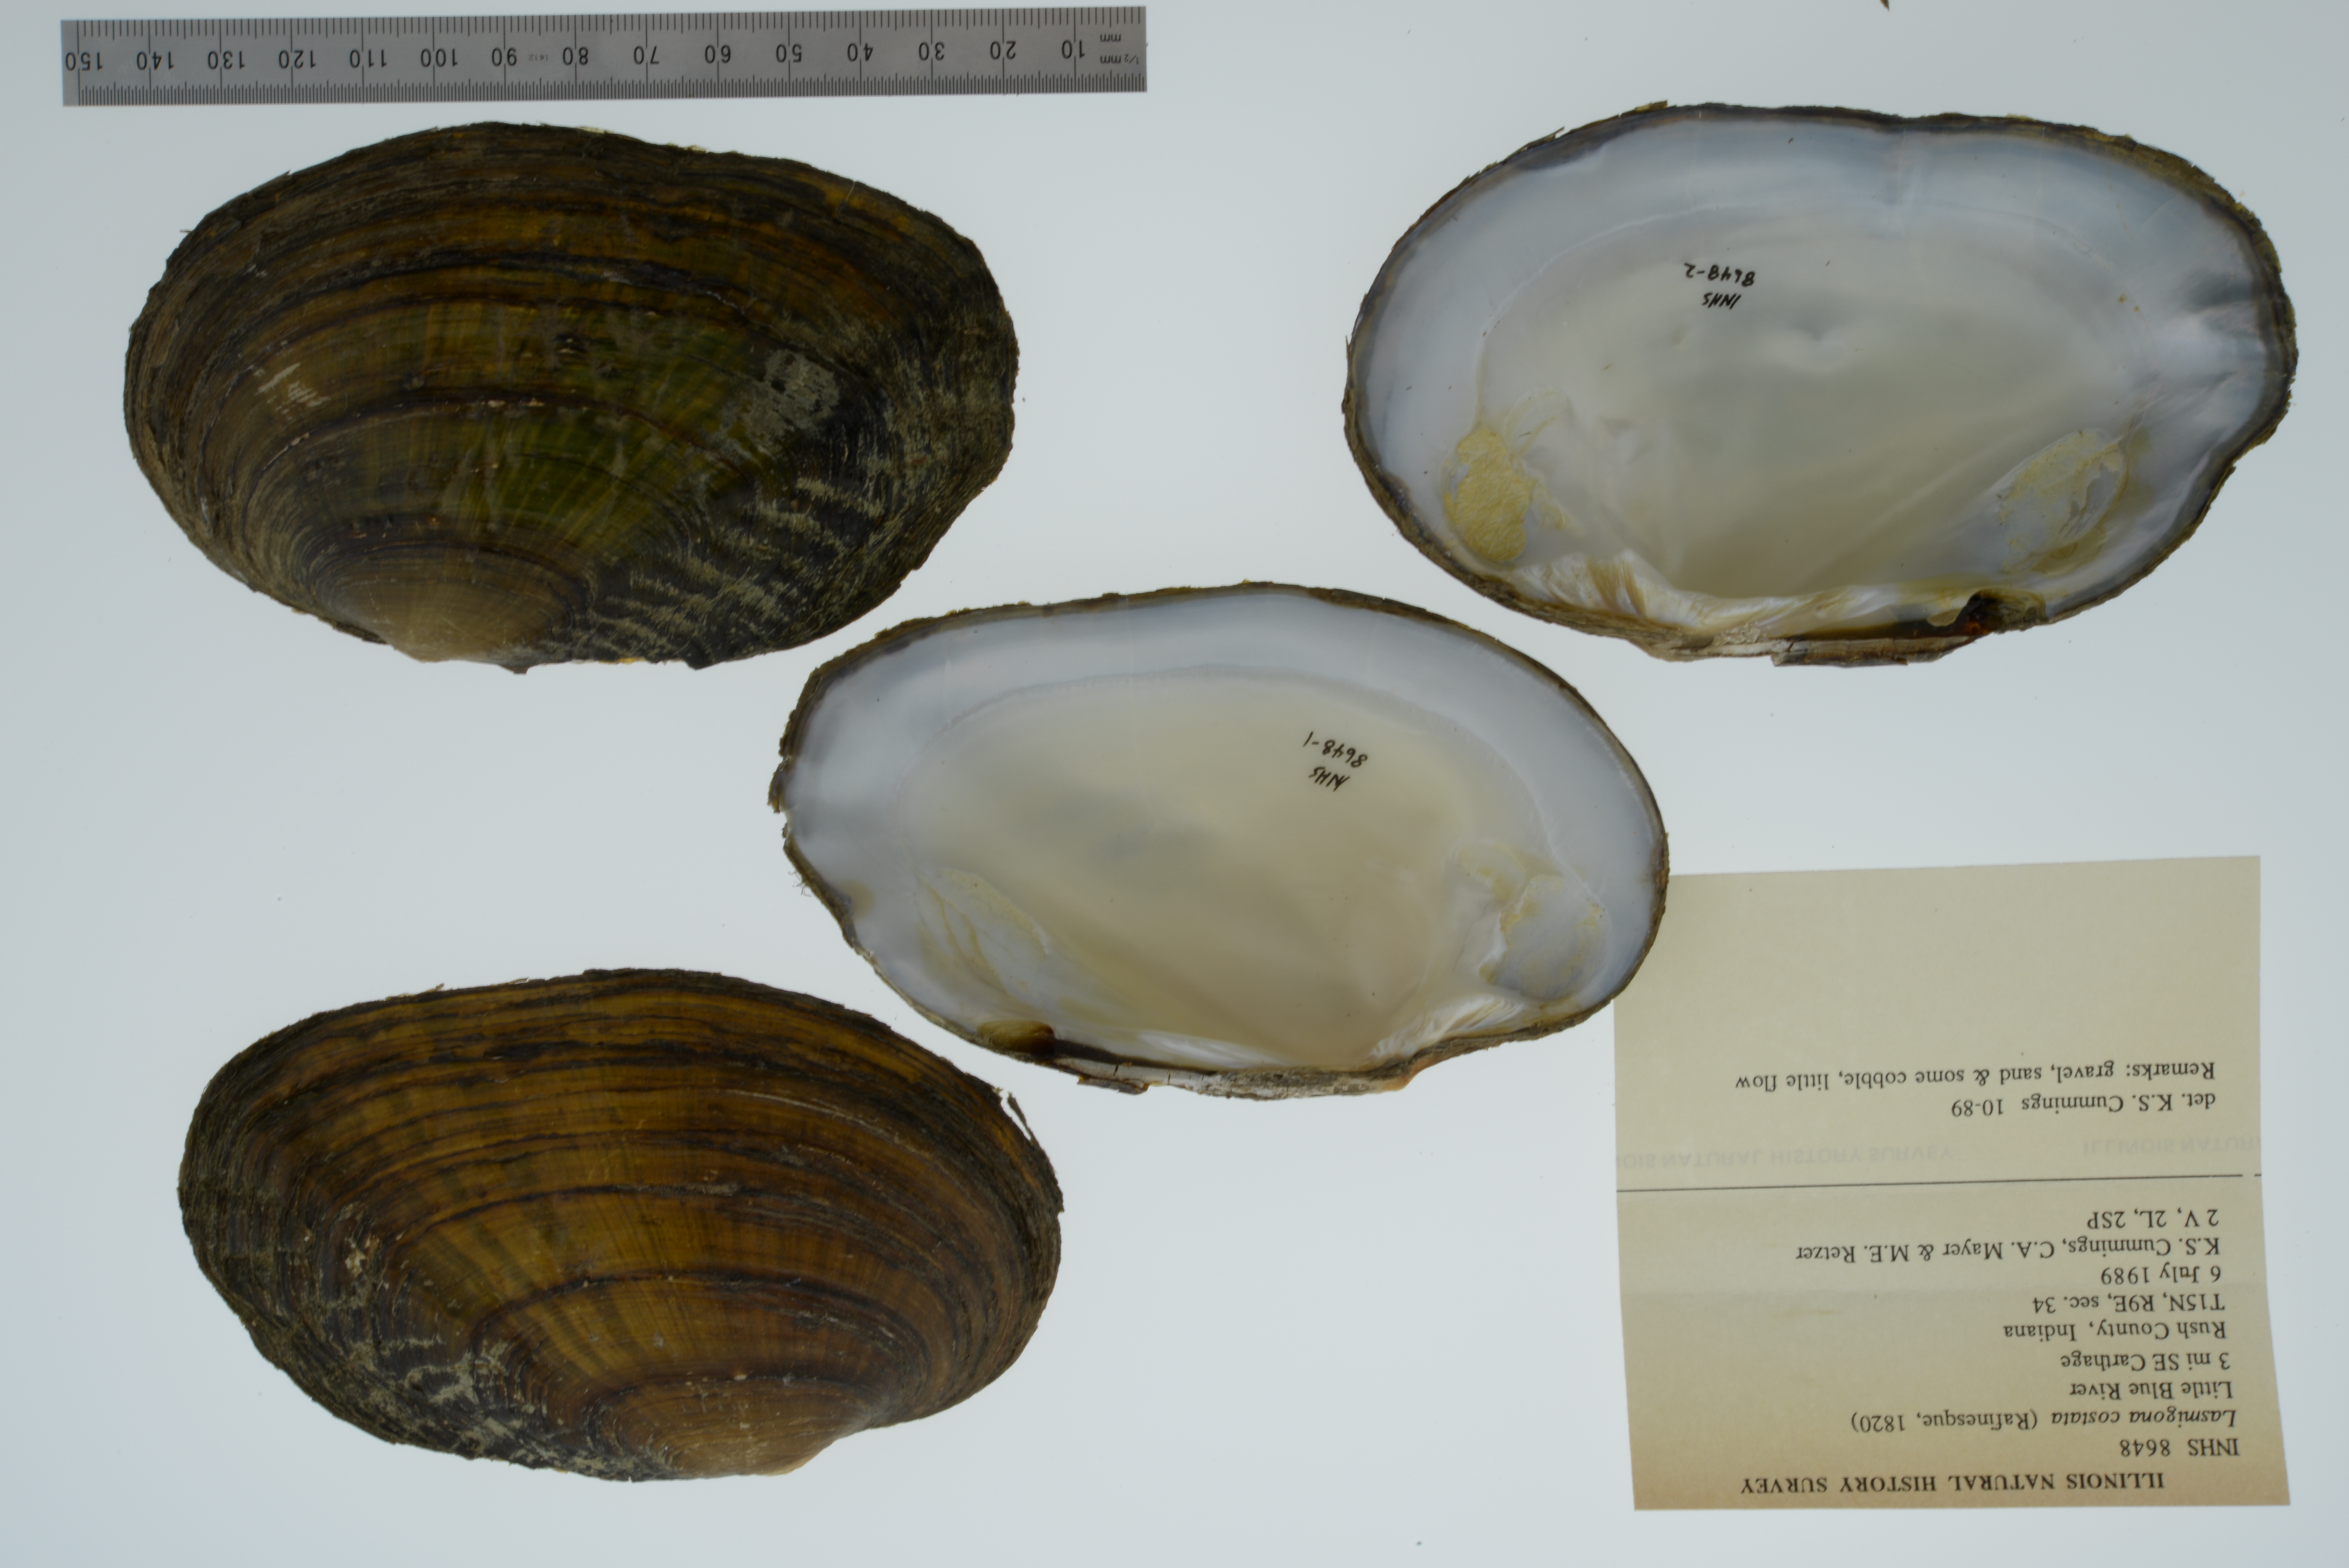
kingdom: Animalia
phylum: Mollusca
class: Bivalvia
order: Unionida
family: Unionidae
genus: Lasmigona
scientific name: Lasmigona costata
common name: Flutedshell
